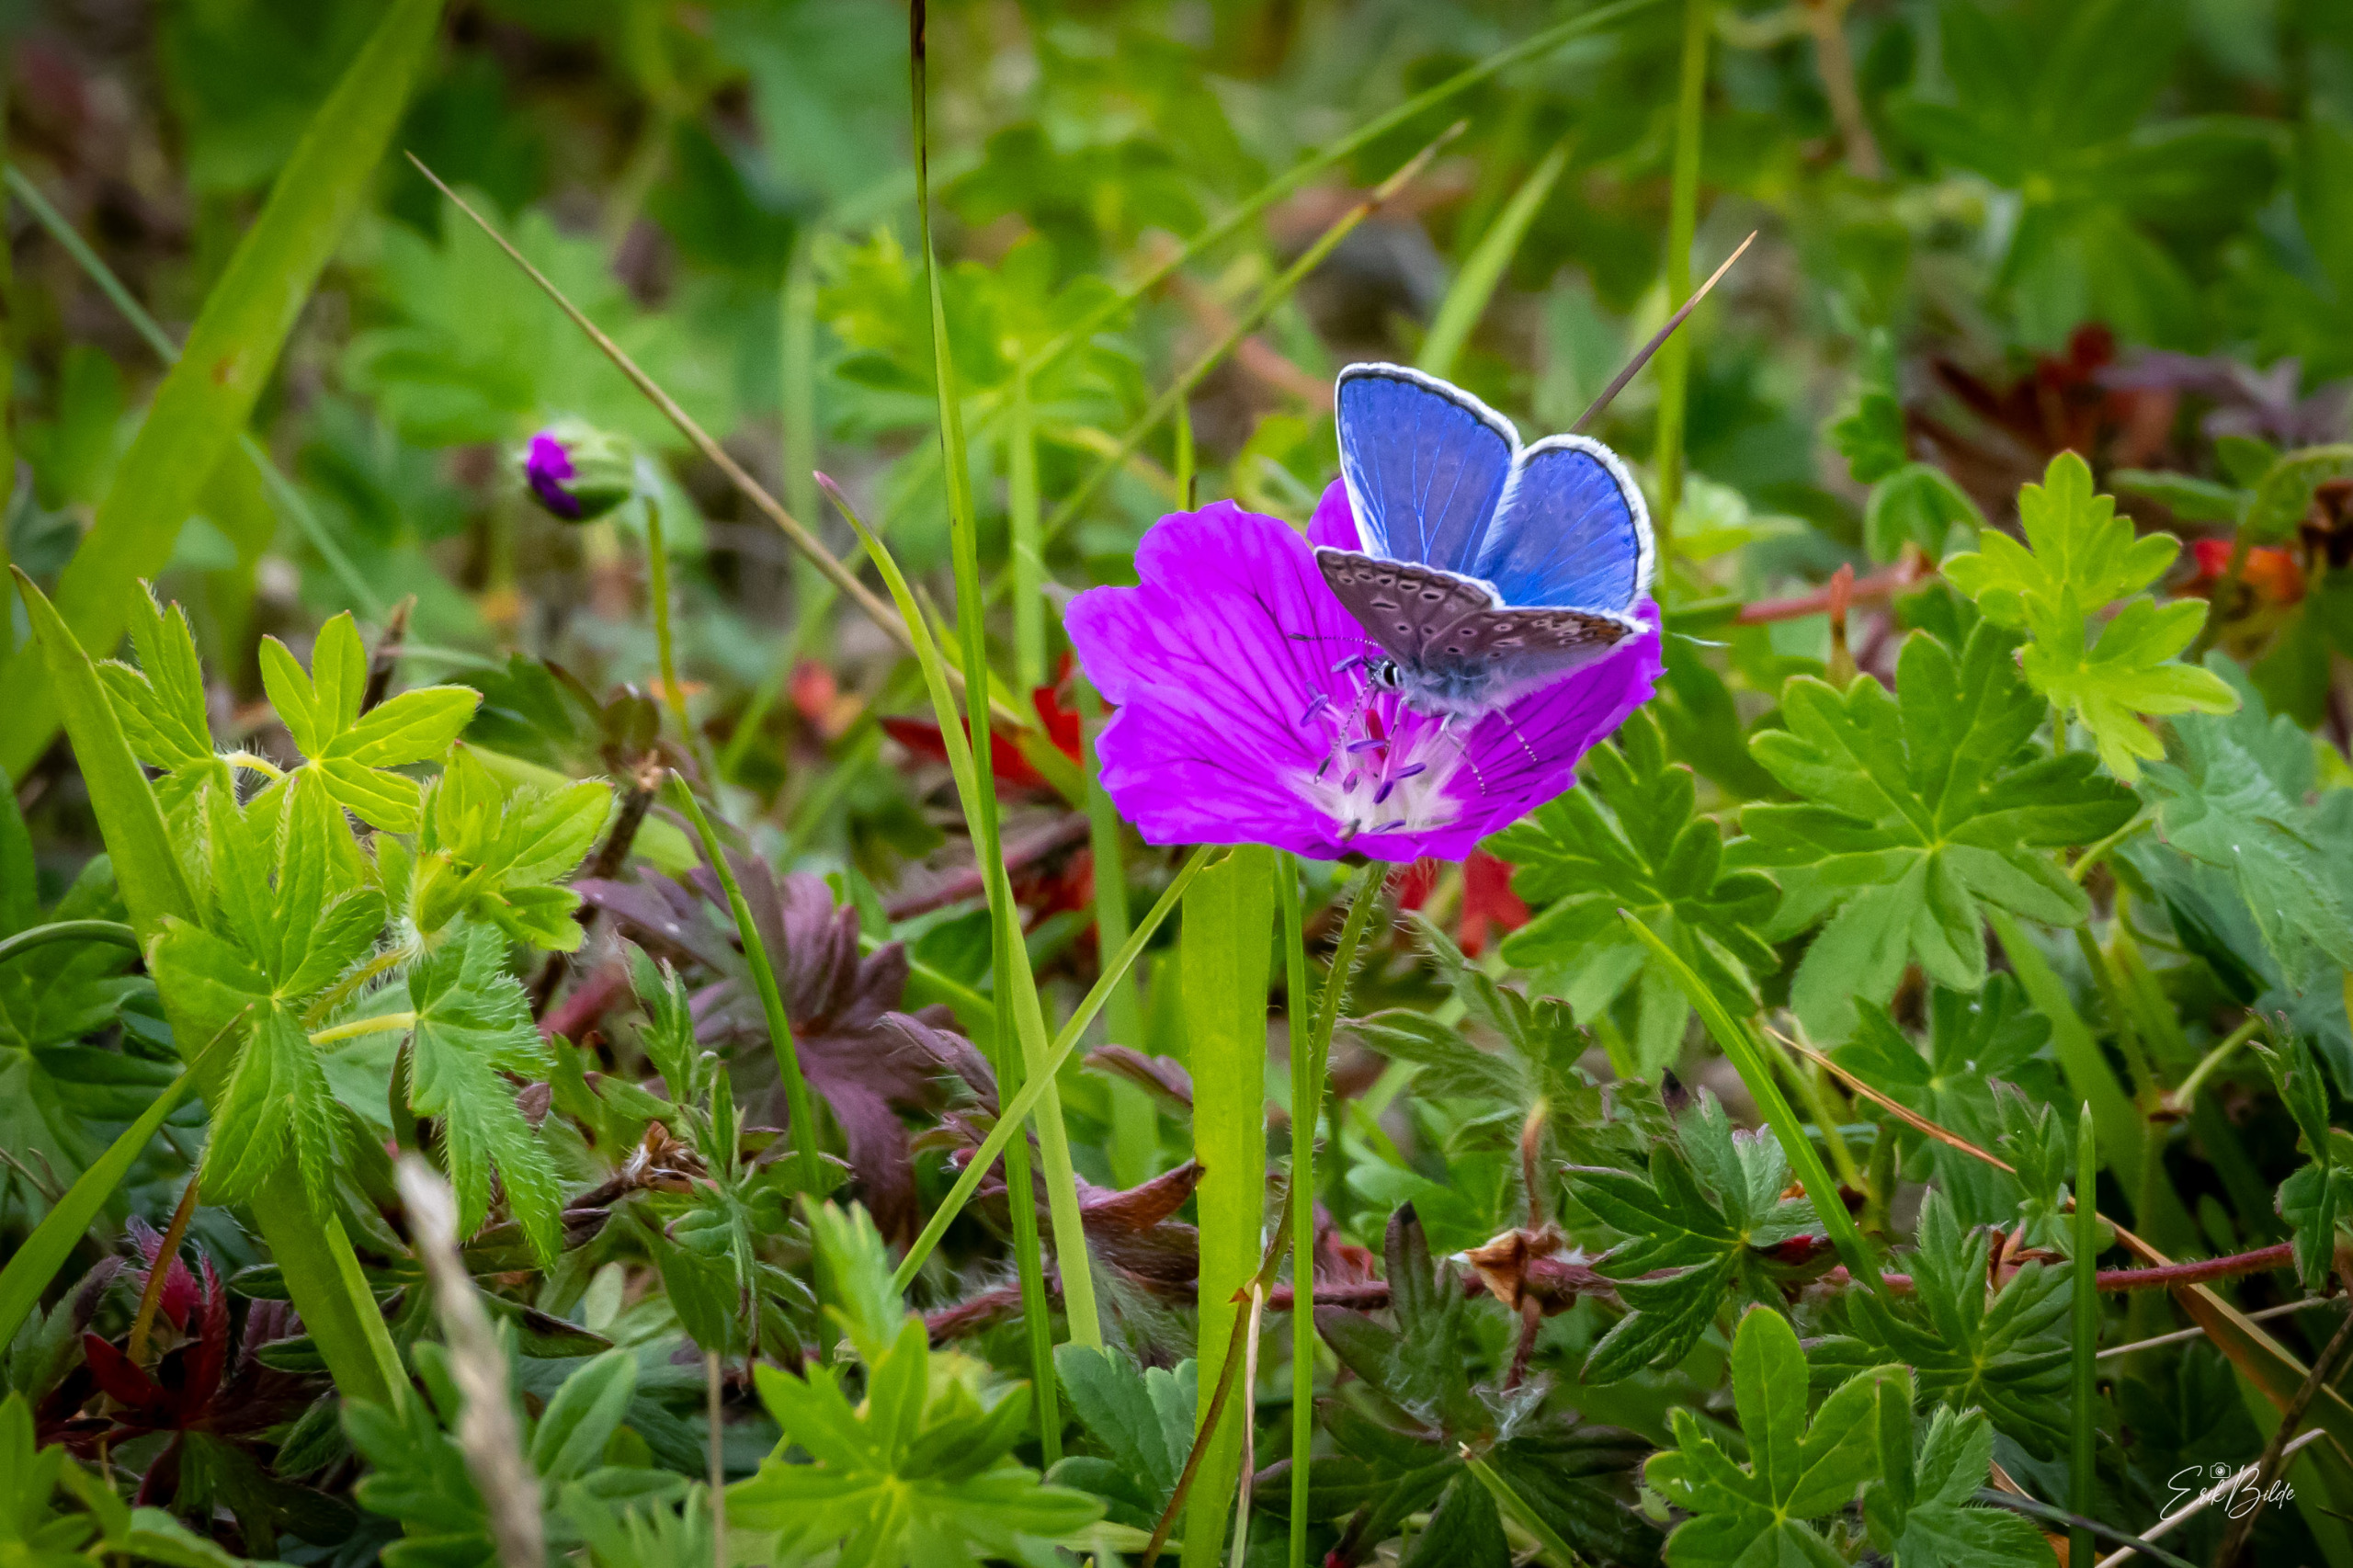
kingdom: Animalia
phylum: Arthropoda
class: Insecta
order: Lepidoptera
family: Lycaenidae
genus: Polyommatus
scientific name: Polyommatus icarus
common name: Almindelig blåfugl
